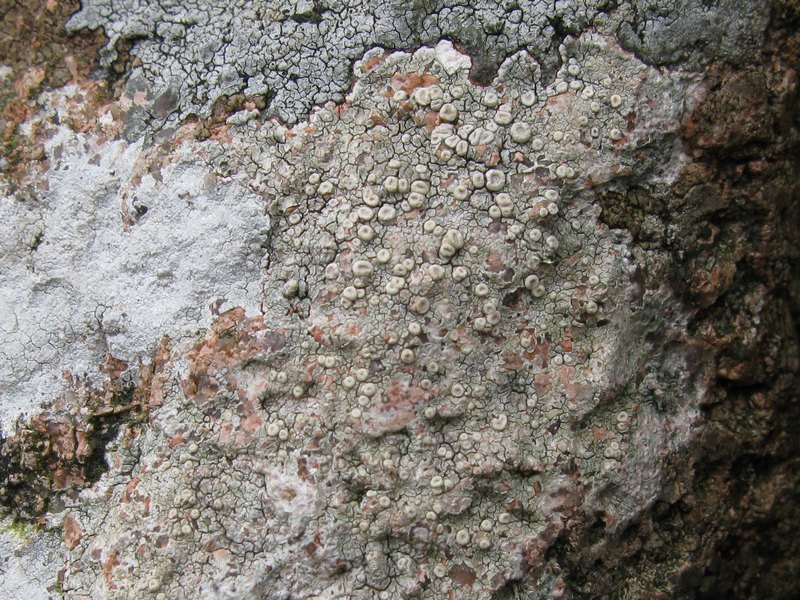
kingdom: Fungi
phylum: Ascomycota
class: Lecanoromycetes
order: Pertusariales
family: Ochrolechiaceae
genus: Ochrolechia
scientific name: Ochrolechia parella
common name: almindelig blegskivelav
